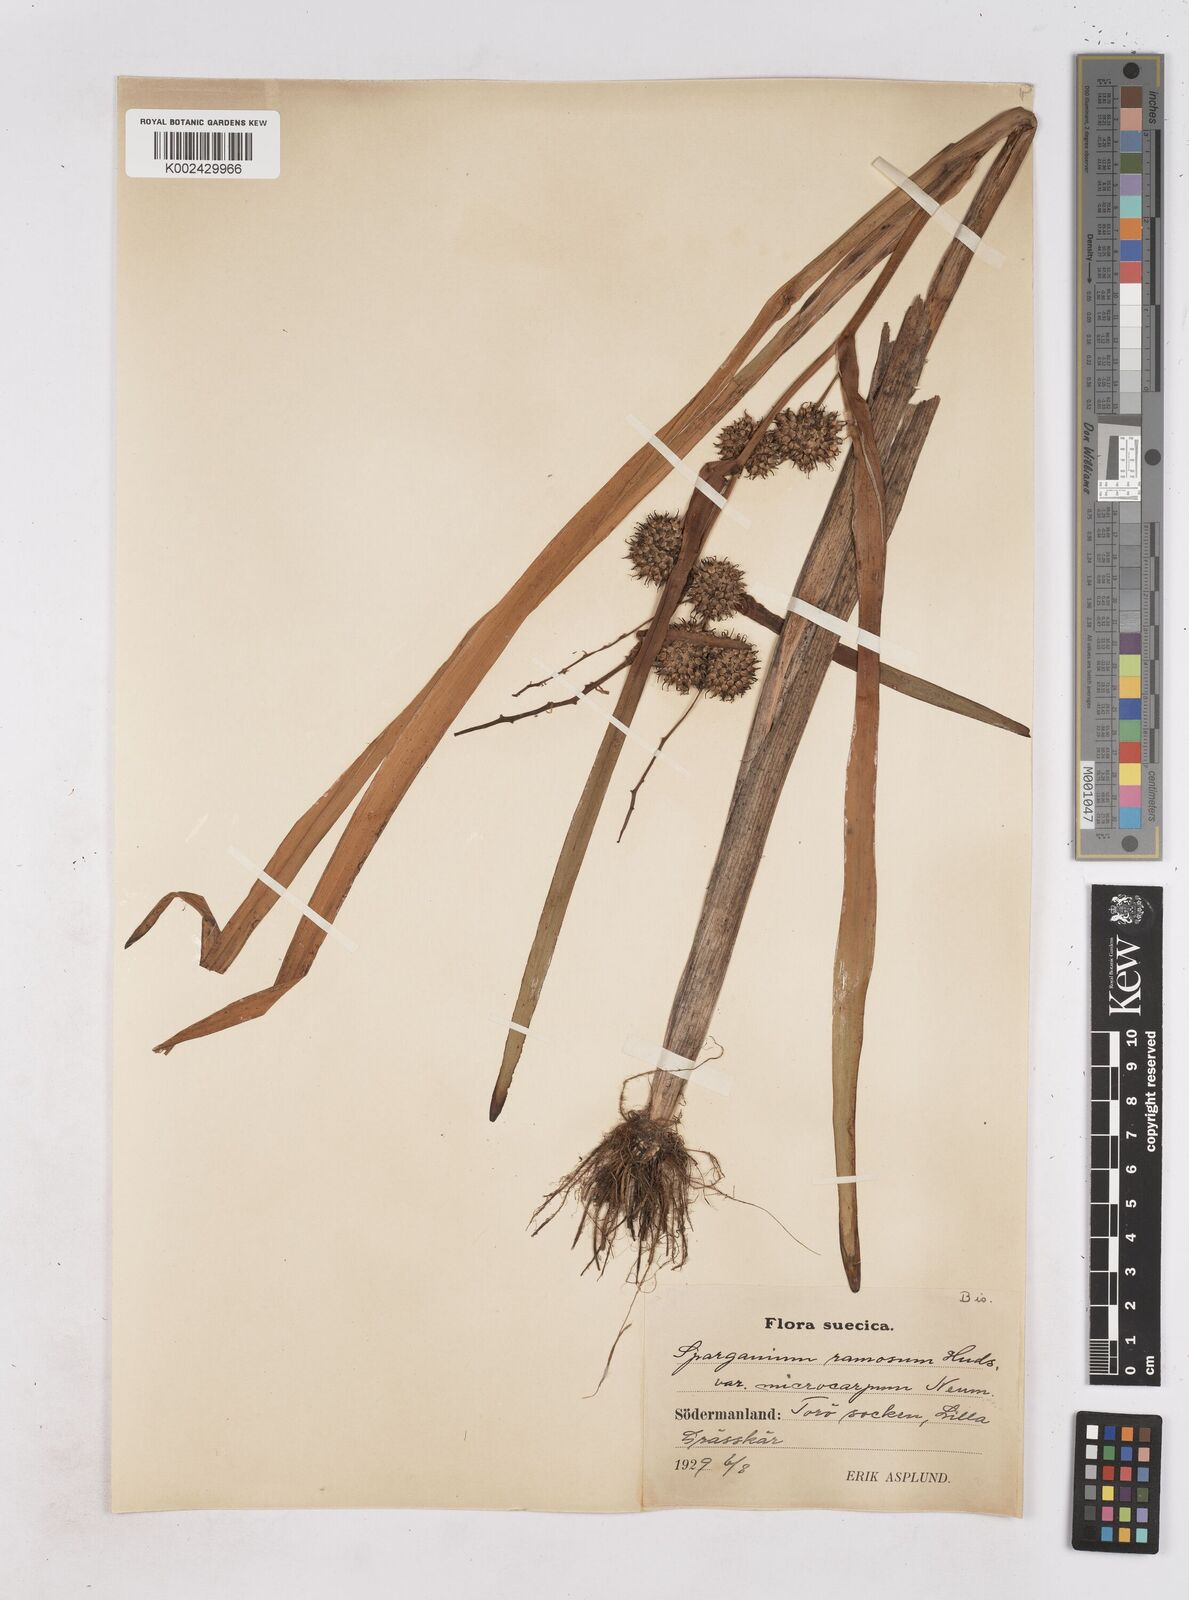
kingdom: Plantae
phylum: Tracheophyta
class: Liliopsida
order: Poales
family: Typhaceae
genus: Sparganium
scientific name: Sparganium erectum
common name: Branched bur-reed
